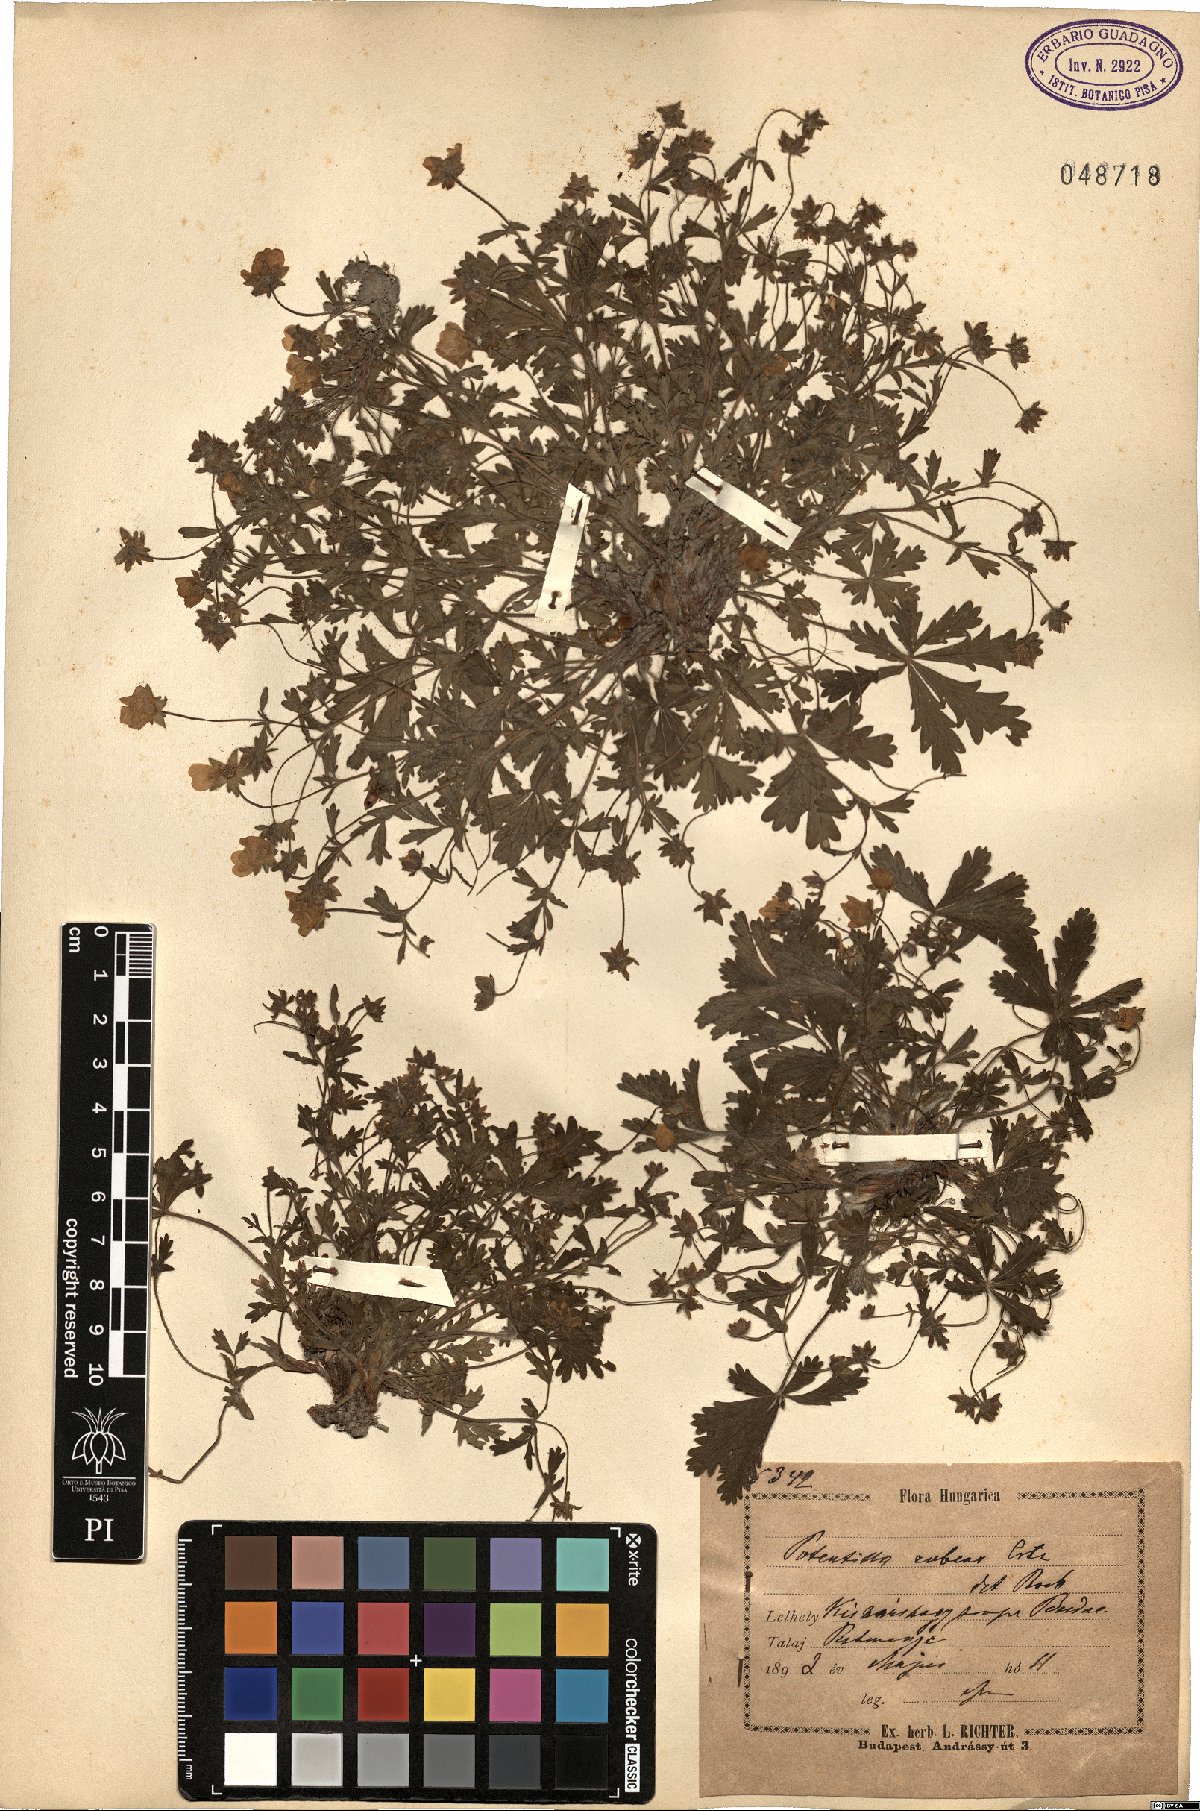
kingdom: Plantae
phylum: Tracheophyta
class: Magnoliopsida
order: Rosales
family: Rosaceae
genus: Potentilla
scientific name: Potentilla heptaphylla
